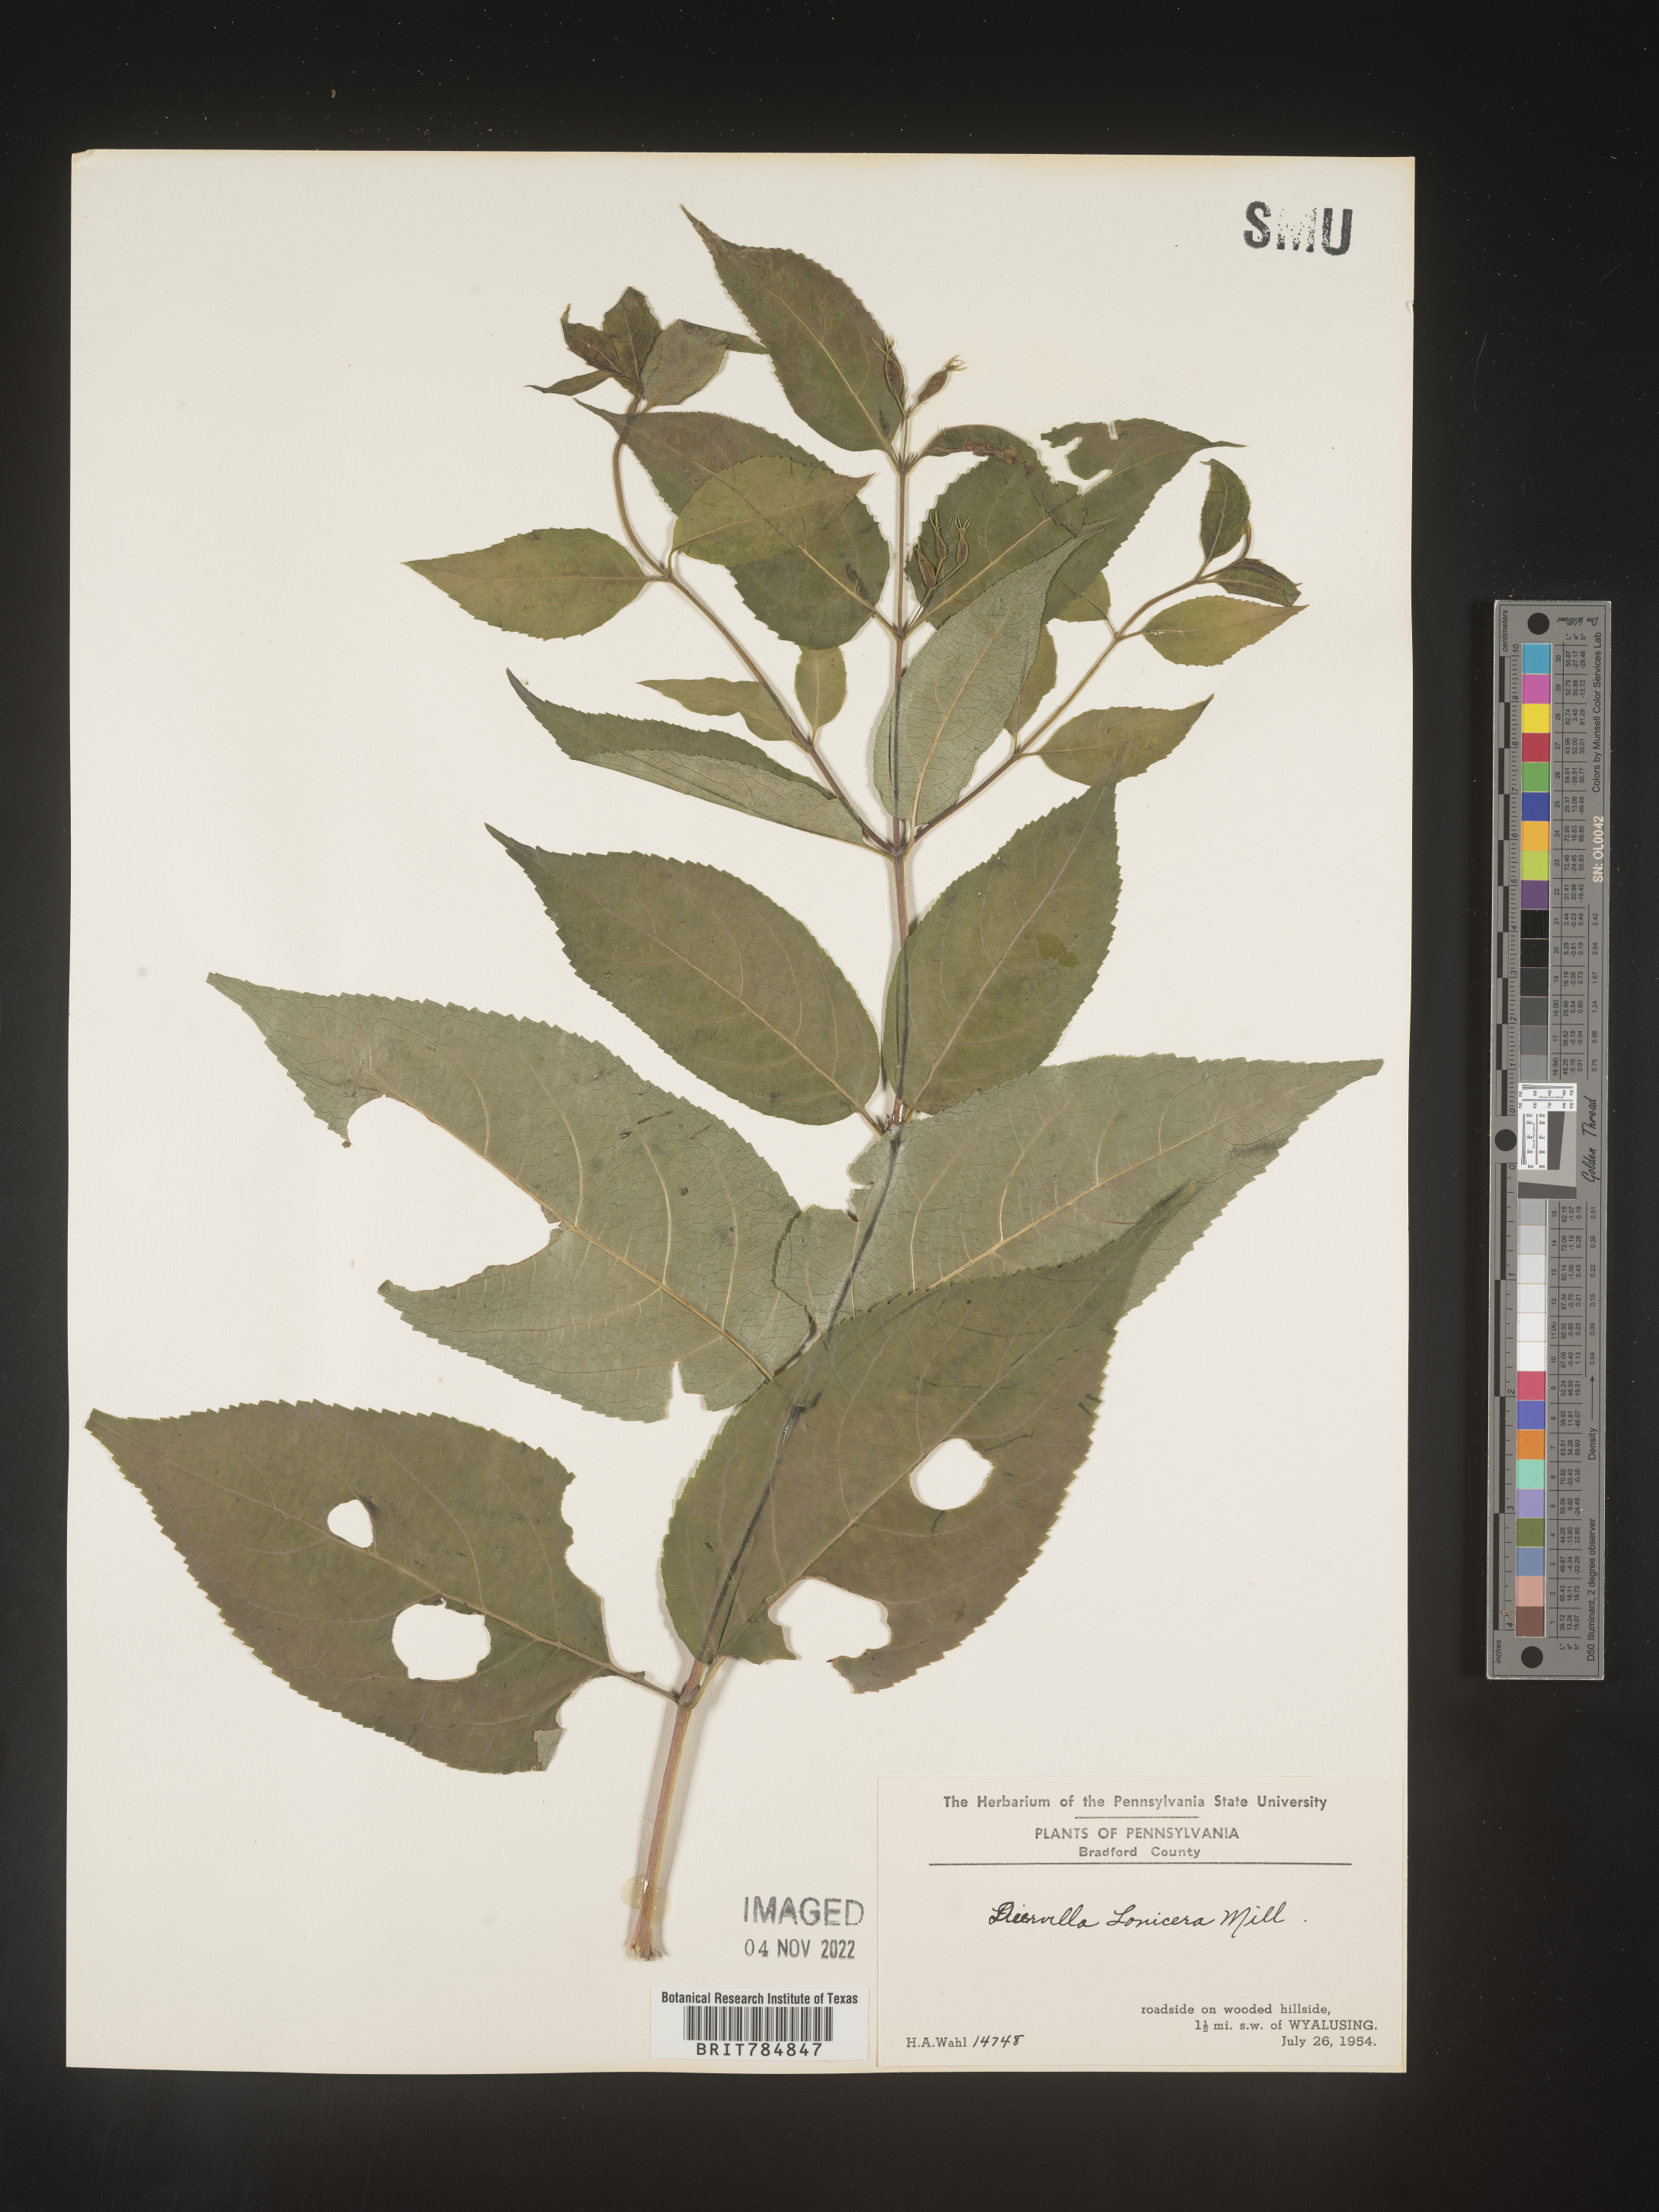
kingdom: Plantae
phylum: Tracheophyta
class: Magnoliopsida
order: Dipsacales
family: Caprifoliaceae
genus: Diervilla
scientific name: Diervilla lonicera
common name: Bush-honeysuckle
